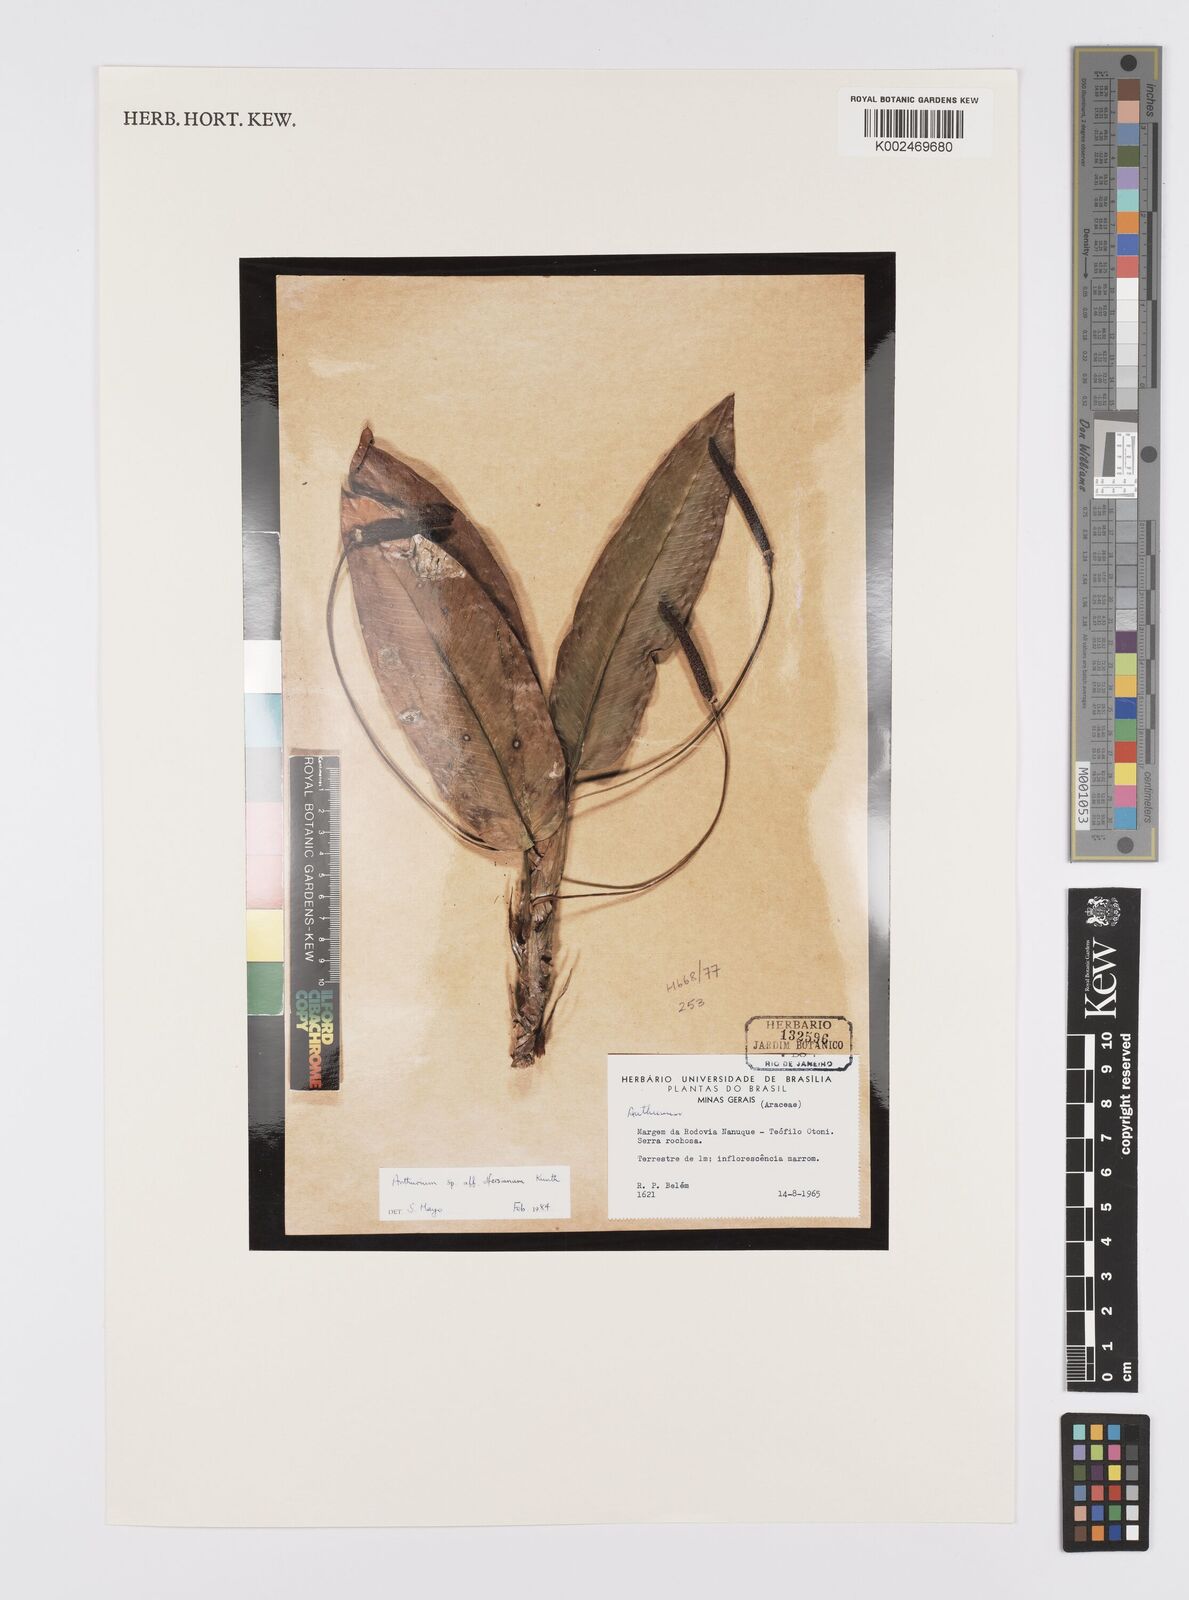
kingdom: Plantae
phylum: Tracheophyta
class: Liliopsida
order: Alismatales
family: Araceae
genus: Anthurium
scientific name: Anthurium
